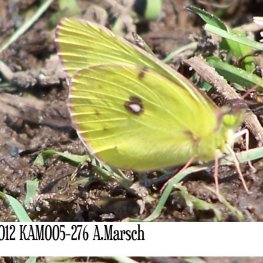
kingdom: Animalia
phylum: Arthropoda
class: Insecta
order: Lepidoptera
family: Pieridae
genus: Colias
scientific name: Colias philodice
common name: Clouded Sulphur
